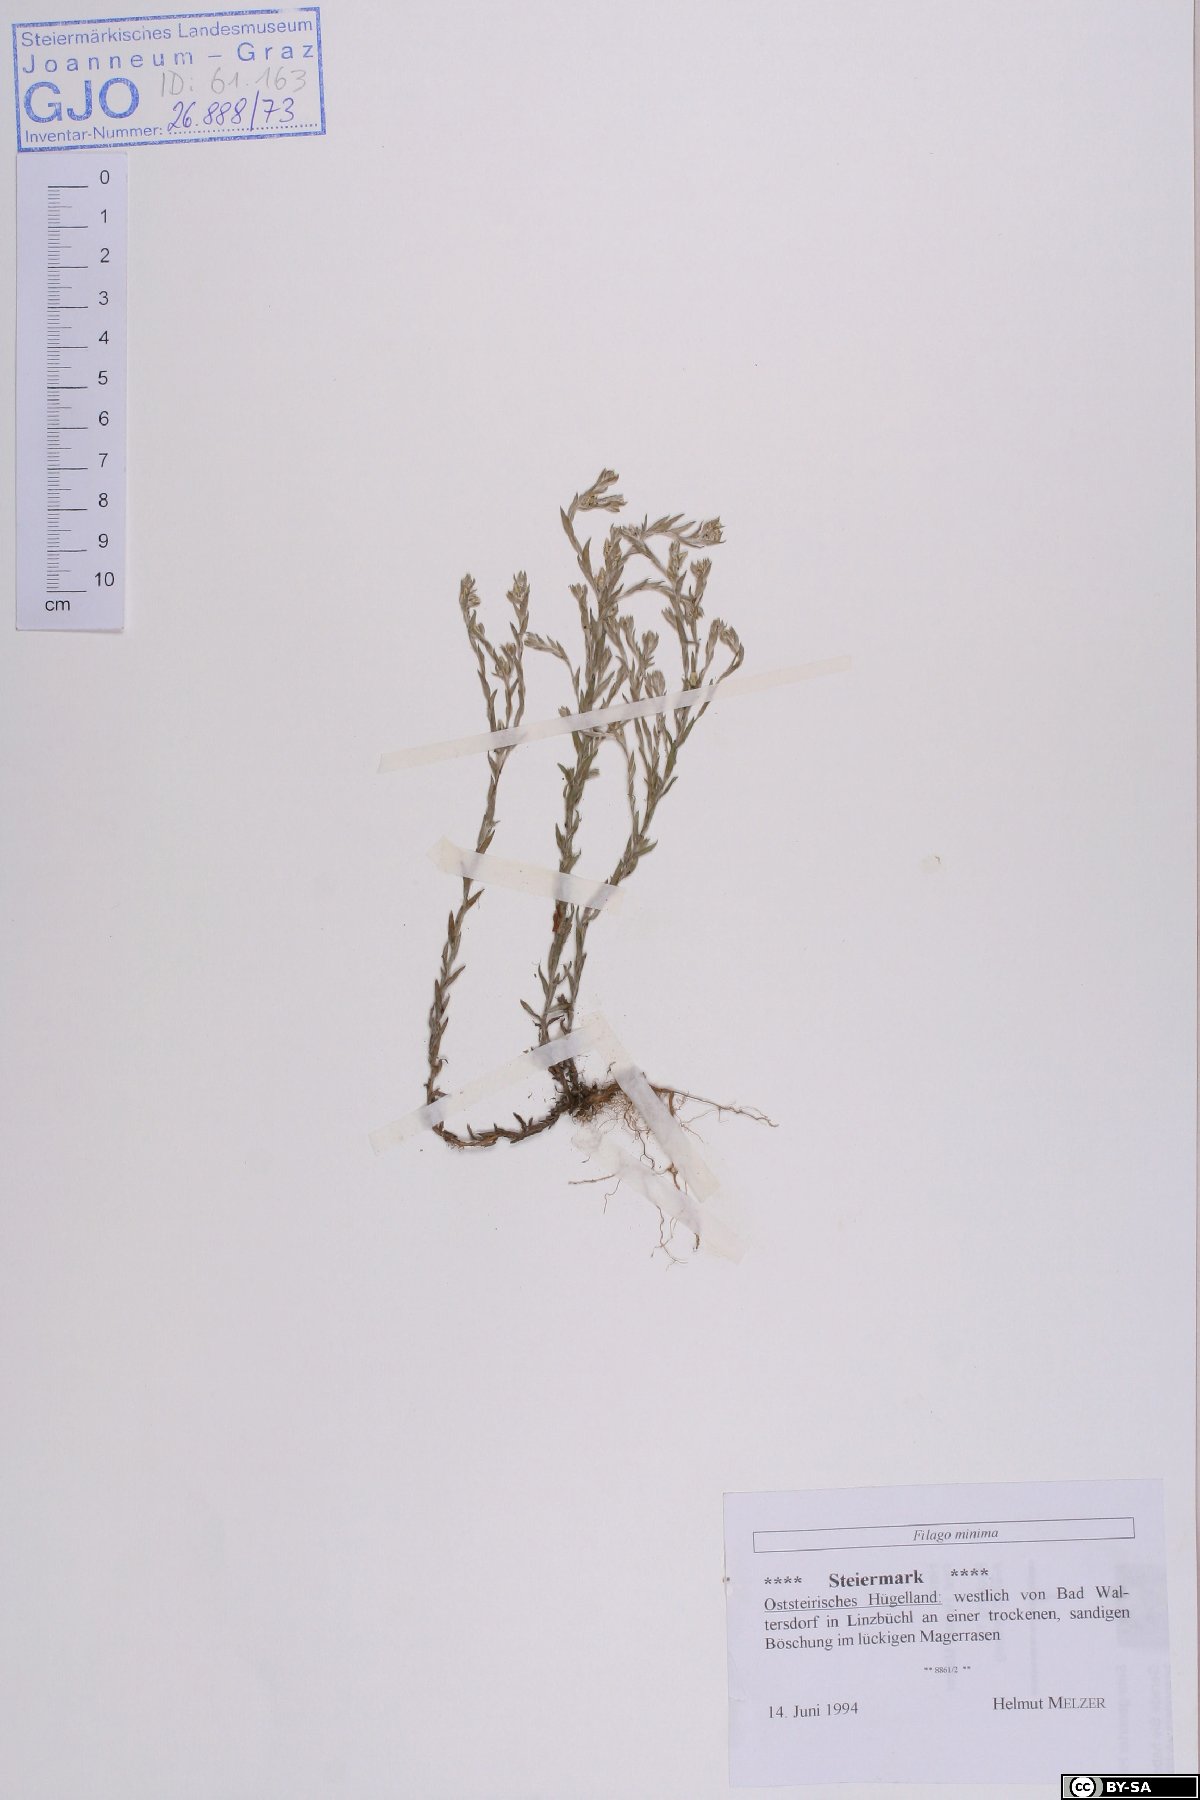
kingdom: Plantae
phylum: Tracheophyta
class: Magnoliopsida
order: Asterales
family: Asteraceae
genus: Logfia
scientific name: Logfia minima
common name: Little cottonrose
